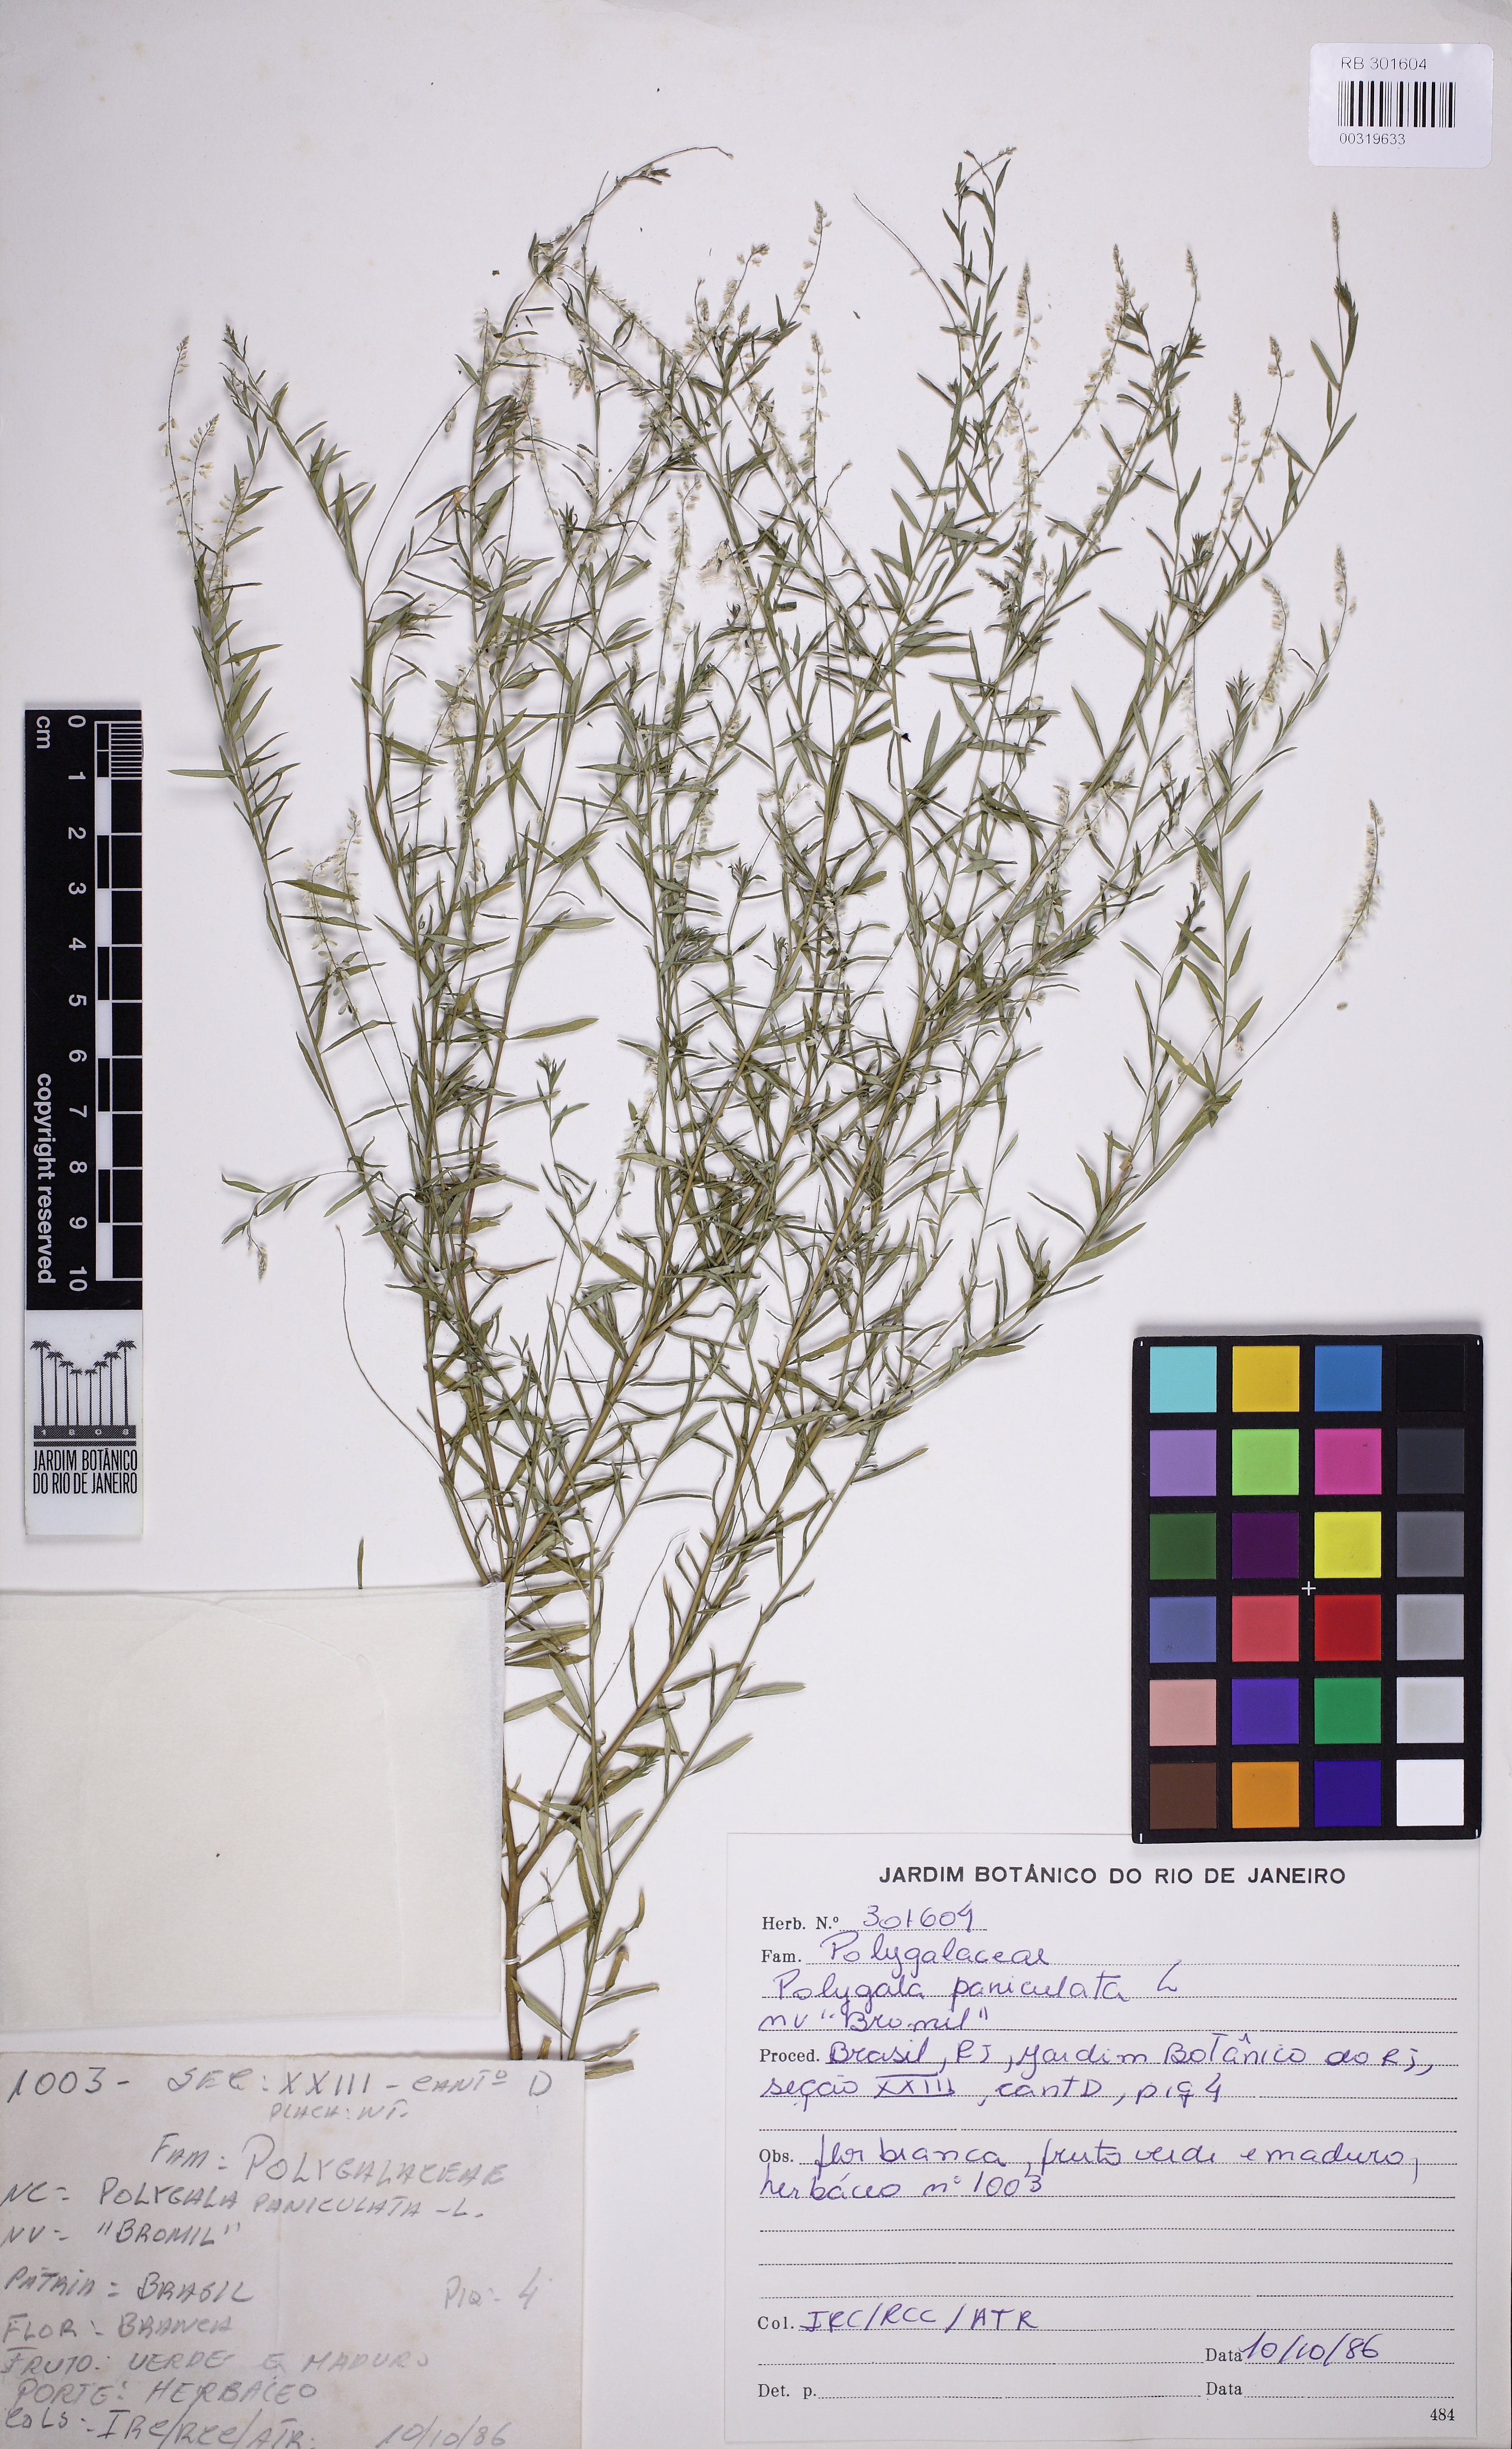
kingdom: Plantae
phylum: Tracheophyta
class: Magnoliopsida
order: Fabales
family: Polygalaceae
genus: Polygala
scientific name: Polygala paniculata
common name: Orosne
